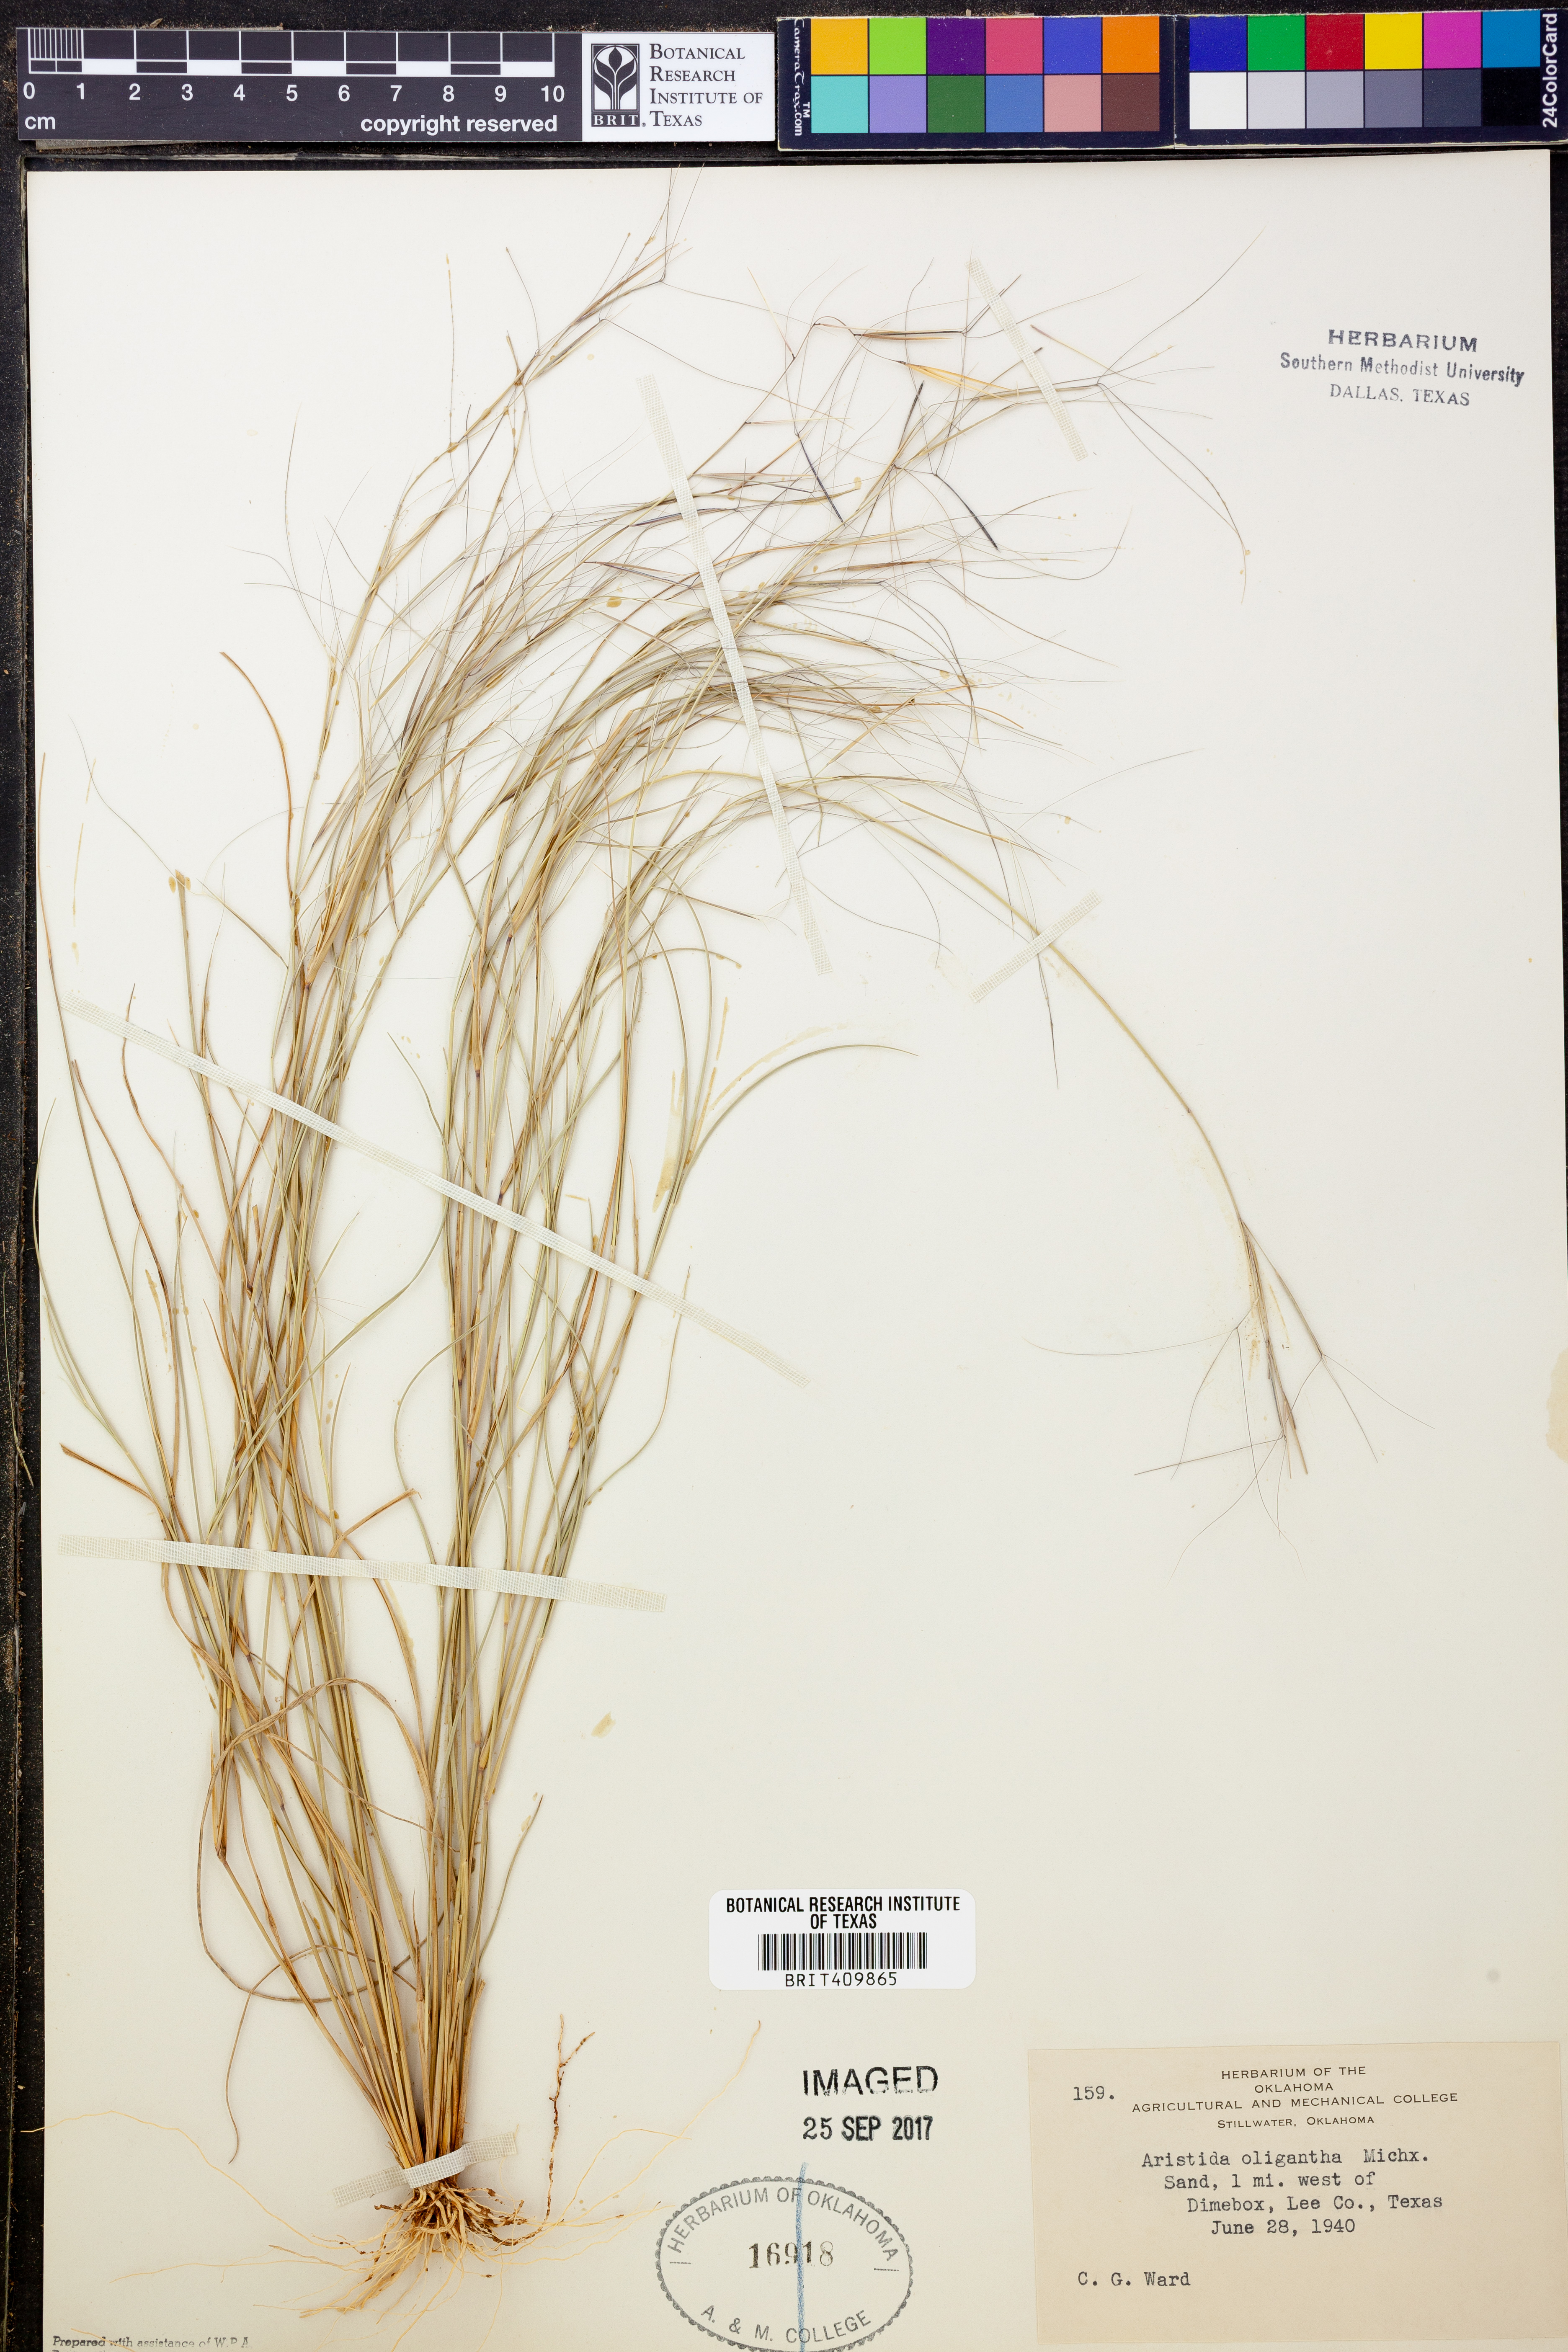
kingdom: Plantae
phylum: Tracheophyta
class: Liliopsida
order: Poales
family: Poaceae
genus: Aristida
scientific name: Aristida oligantha
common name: Few-flowered aristida
